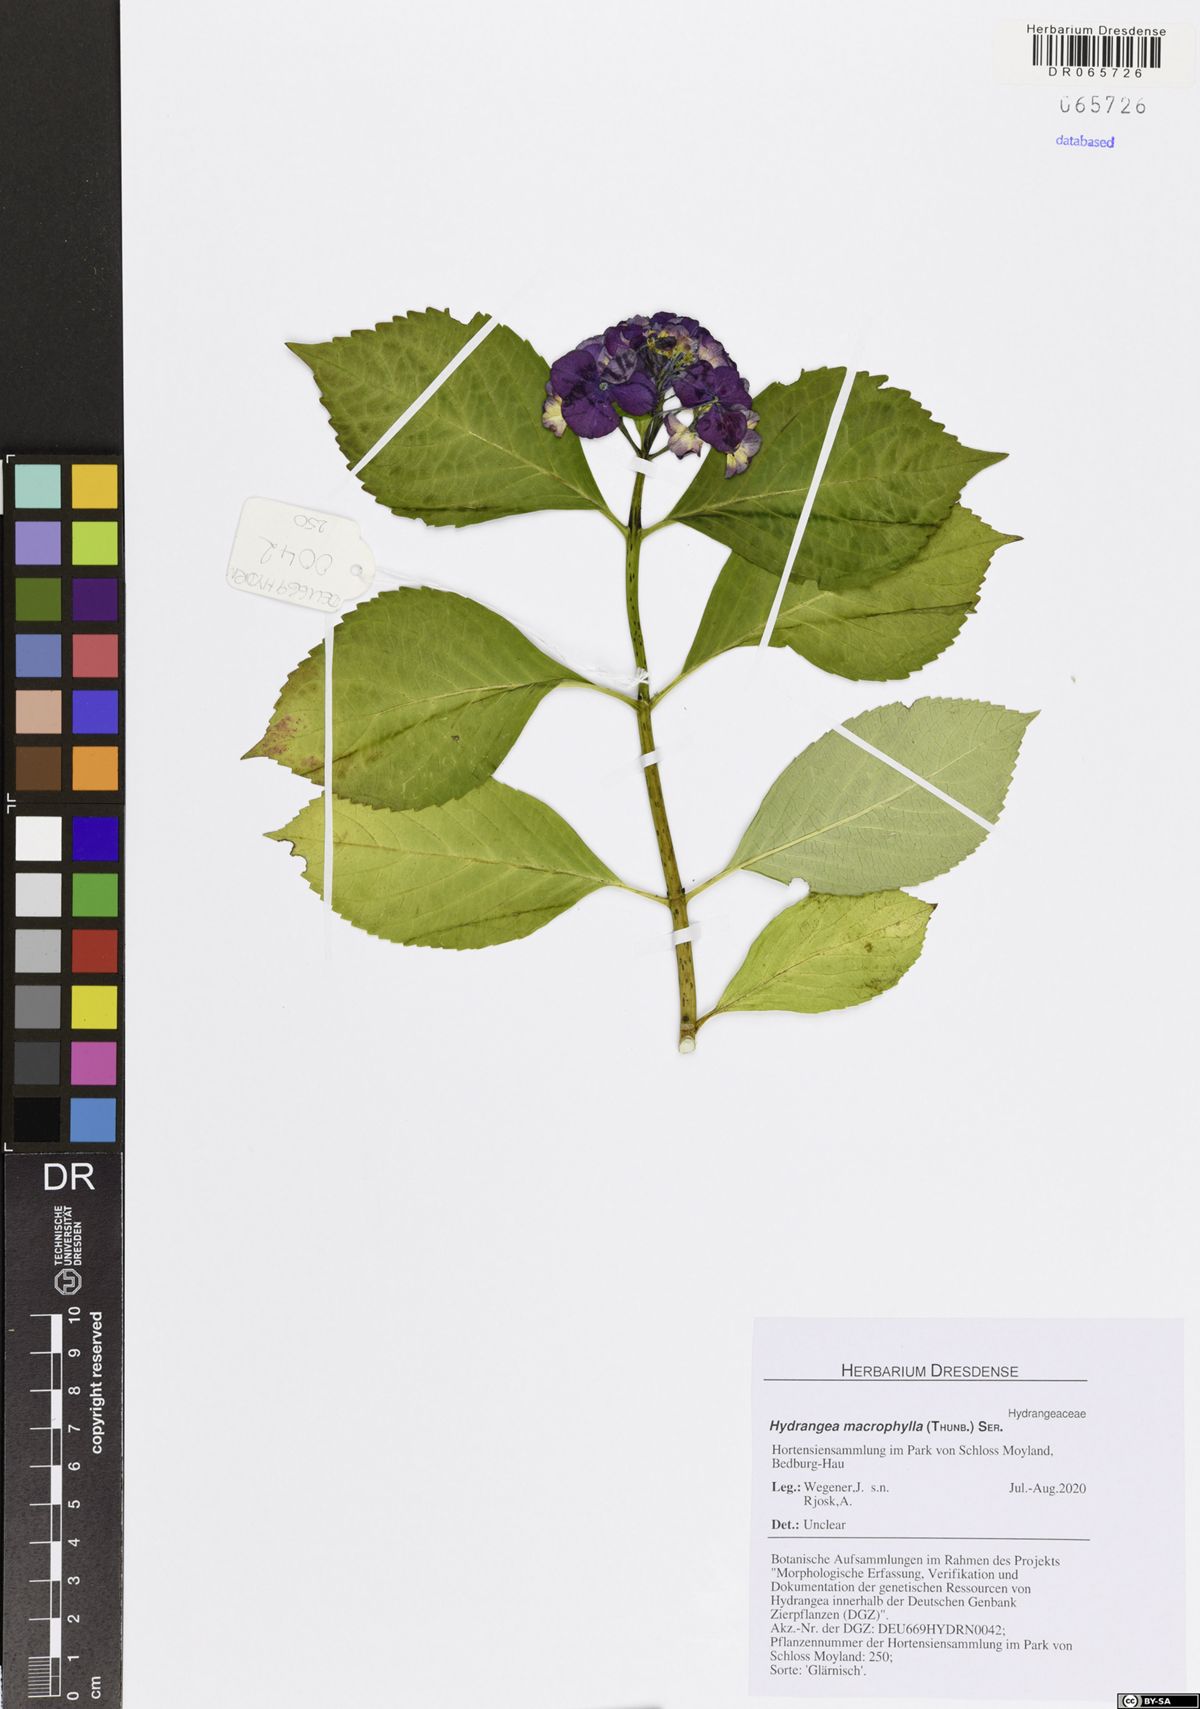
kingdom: Plantae
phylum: Tracheophyta
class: Magnoliopsida
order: Cornales
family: Hydrangeaceae
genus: Hydrangea
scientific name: Hydrangea macrophylla
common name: Hydrangea
